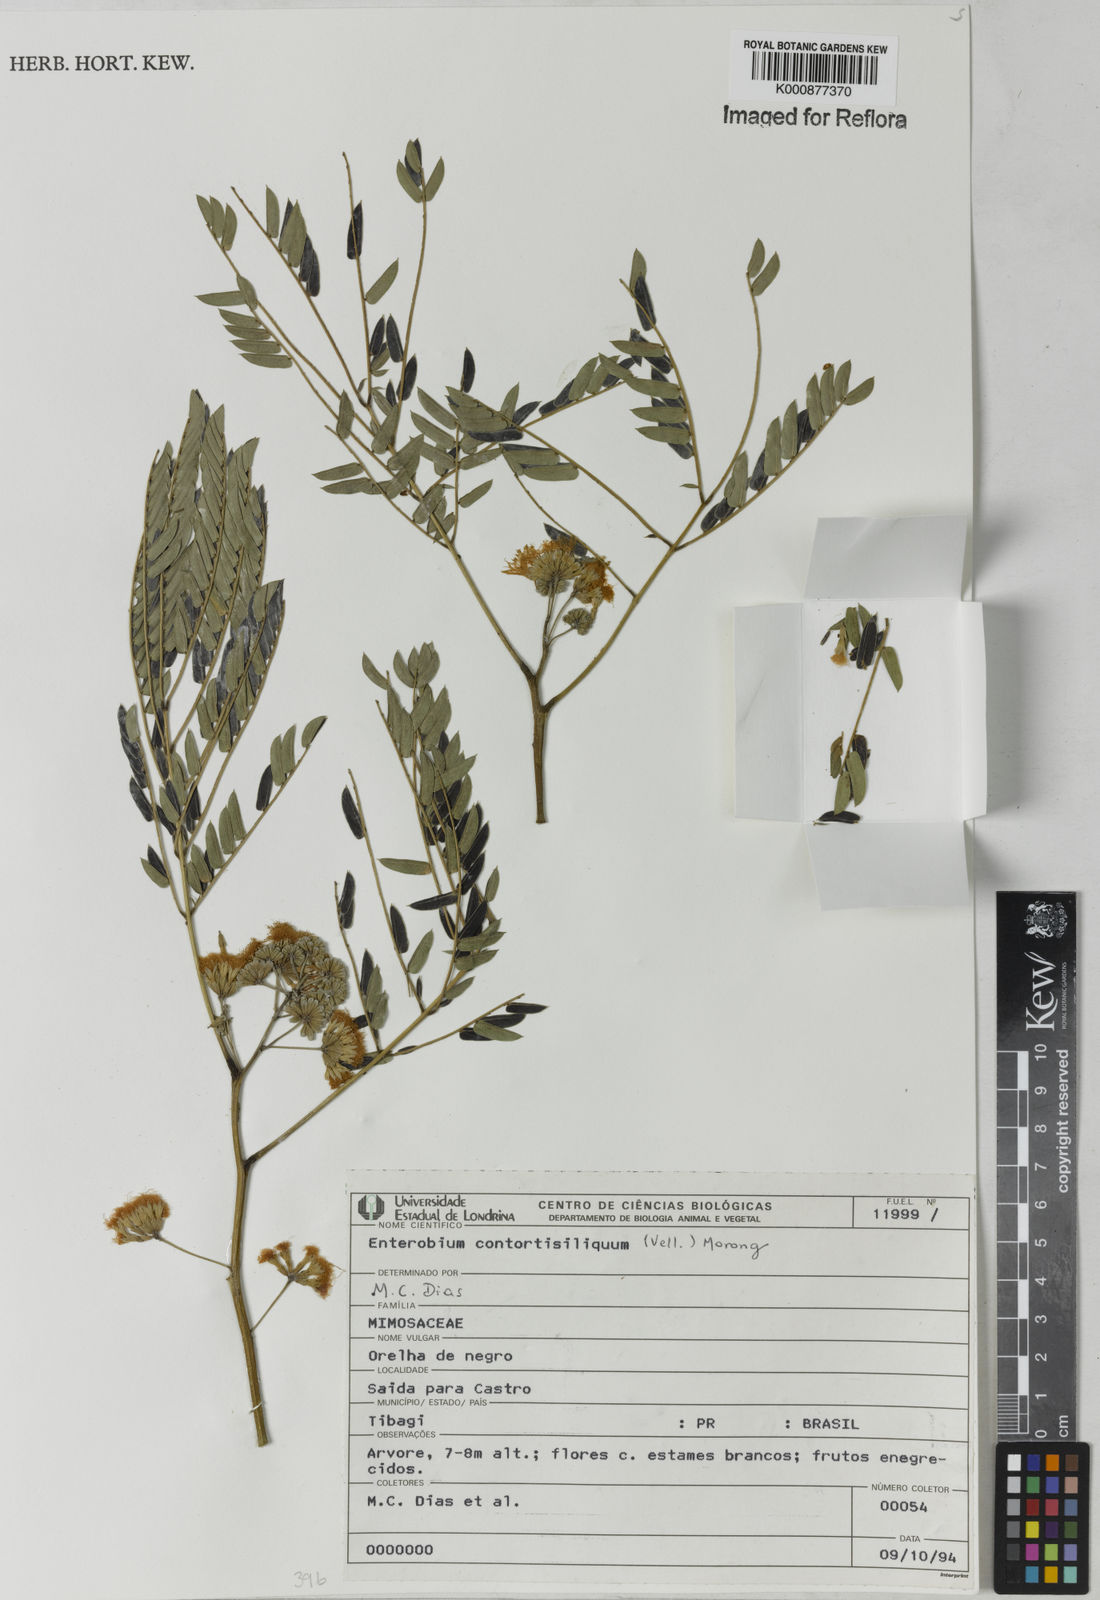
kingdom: Plantae
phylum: Tracheophyta
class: Magnoliopsida
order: Fabales
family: Fabaceae
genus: Enterolobium
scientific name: Enterolobium contortisiliquum
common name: Pacara earpod tree
